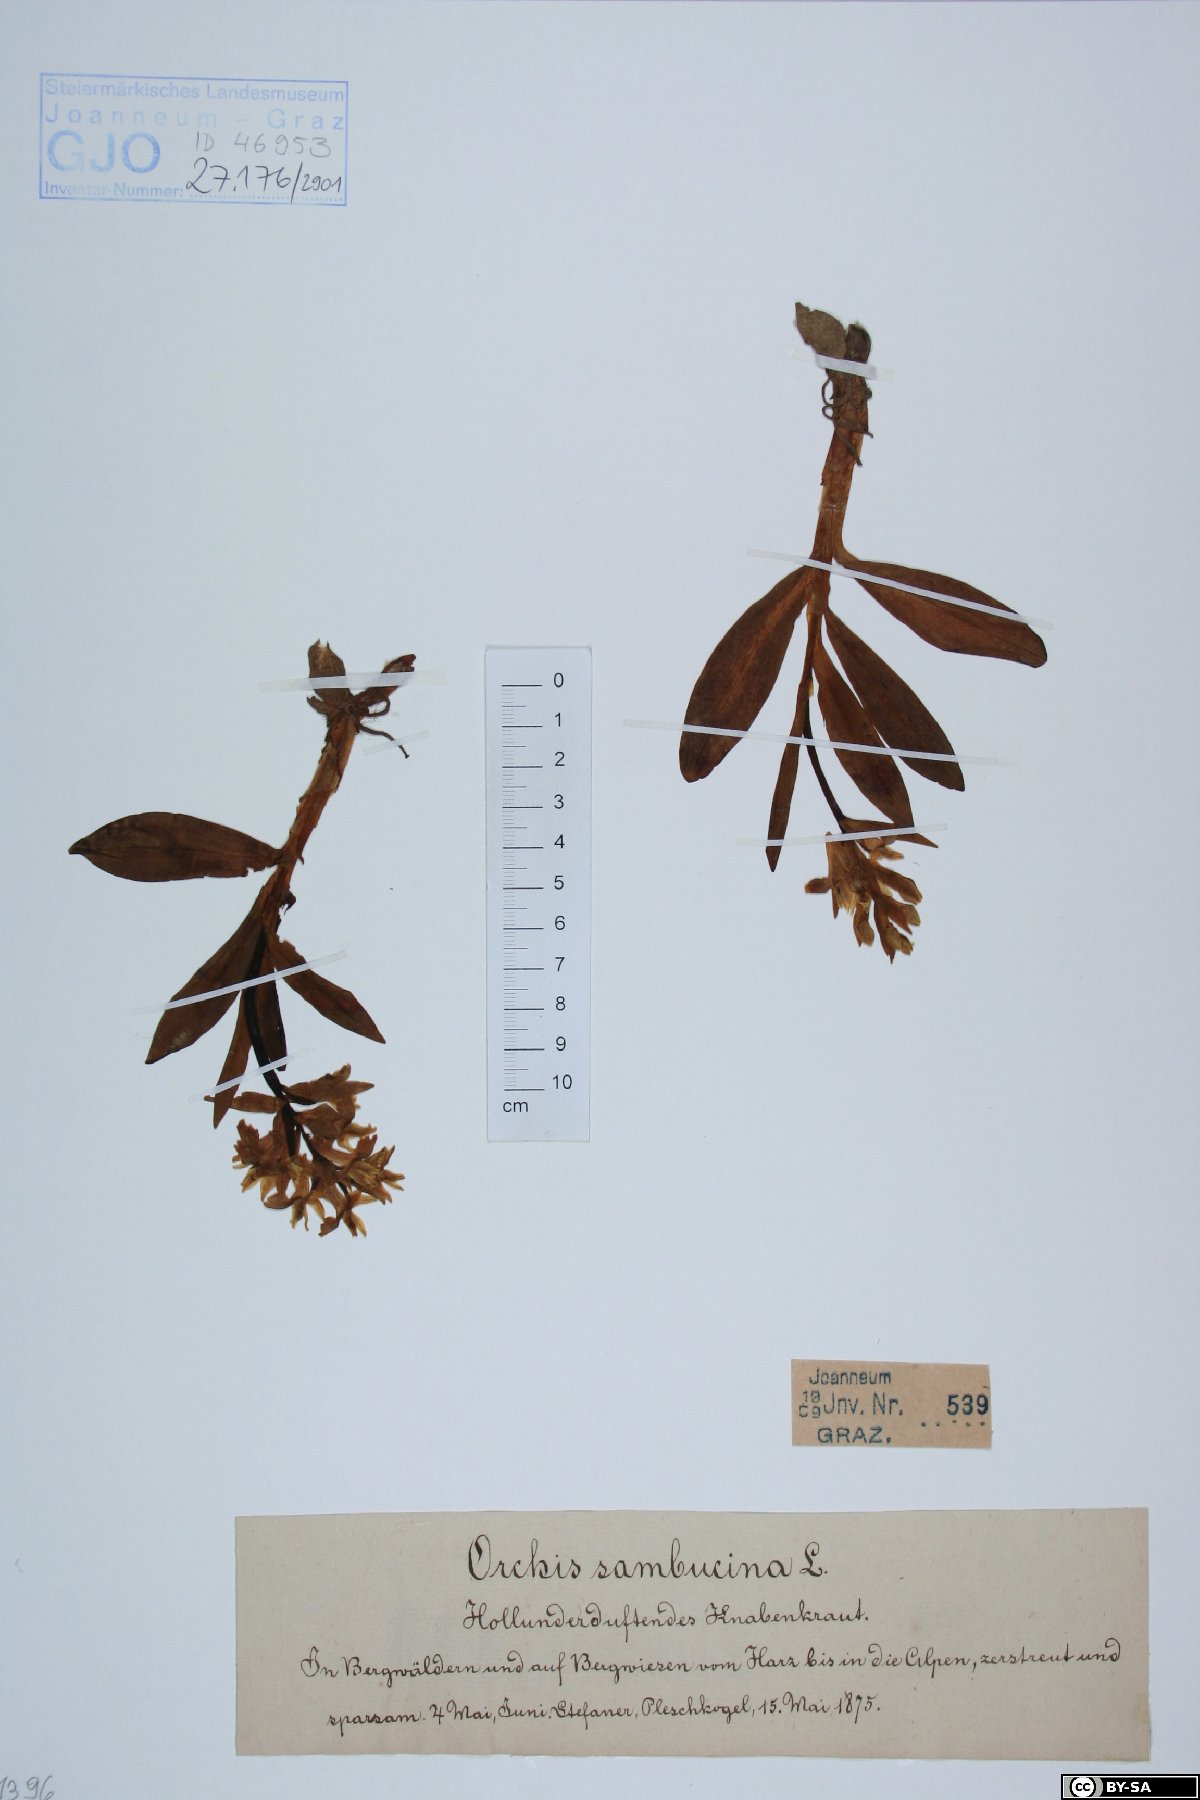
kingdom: Plantae
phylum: Tracheophyta
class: Liliopsida
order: Asparagales
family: Orchidaceae
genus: Dactylorhiza
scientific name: Dactylorhiza sambucina
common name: Elder-flowered orchid
